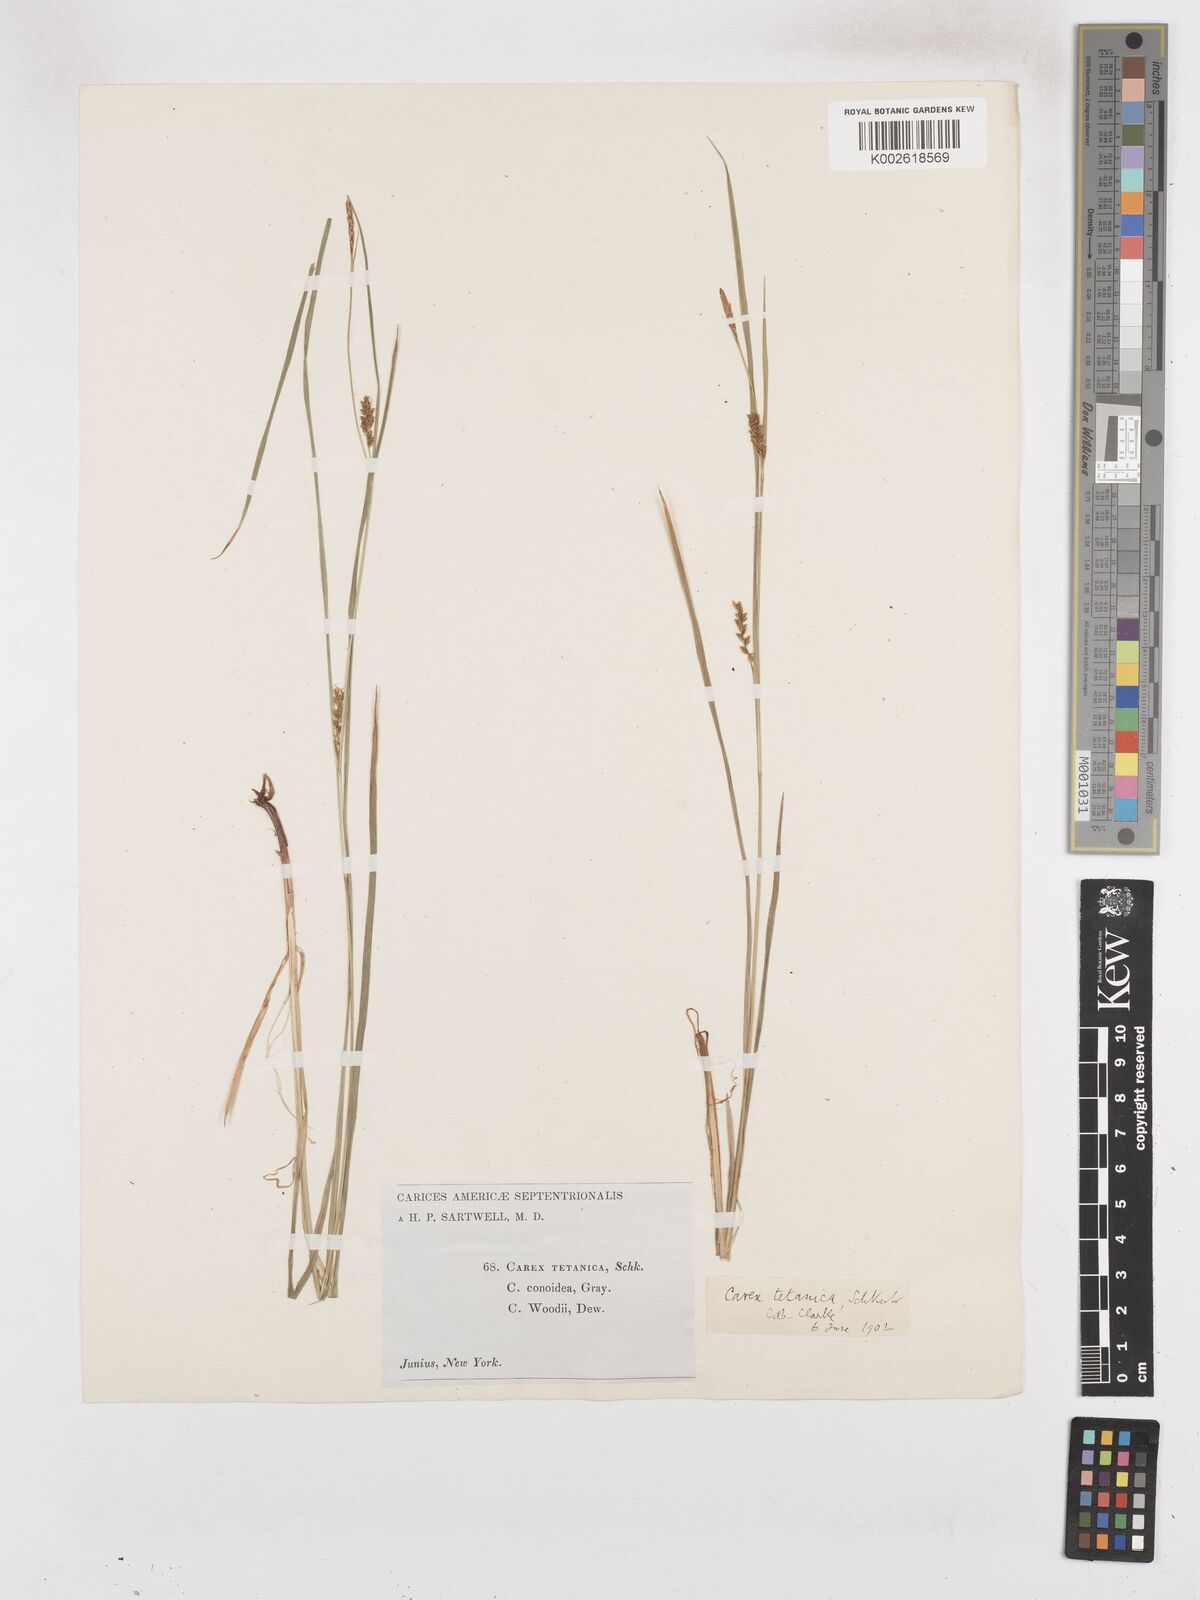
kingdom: Plantae
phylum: Tracheophyta
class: Liliopsida
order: Poales
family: Cyperaceae
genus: Carex
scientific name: Carex woodii
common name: Wood's sedge
